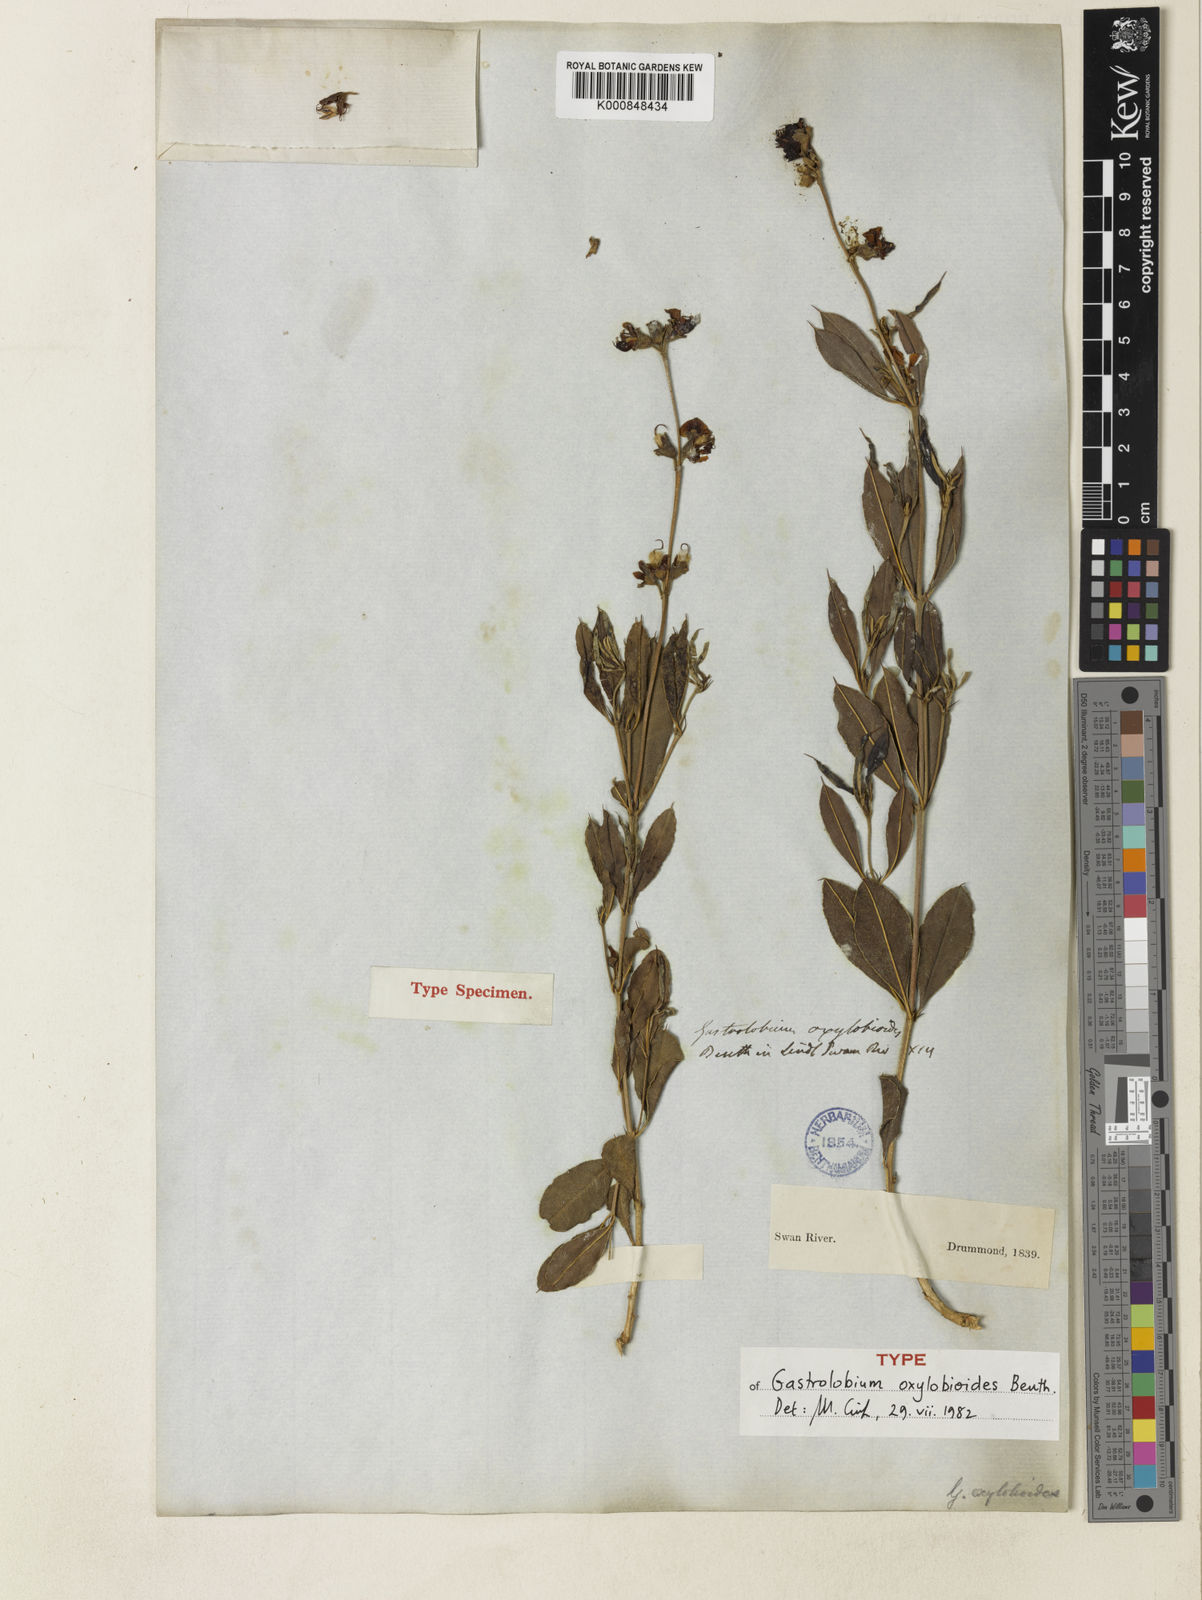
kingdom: Plantae
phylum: Tracheophyta
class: Magnoliopsida
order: Fabales
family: Fabaceae
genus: Gastrolobium
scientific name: Gastrolobium oxylobioides
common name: Champion bay poison
